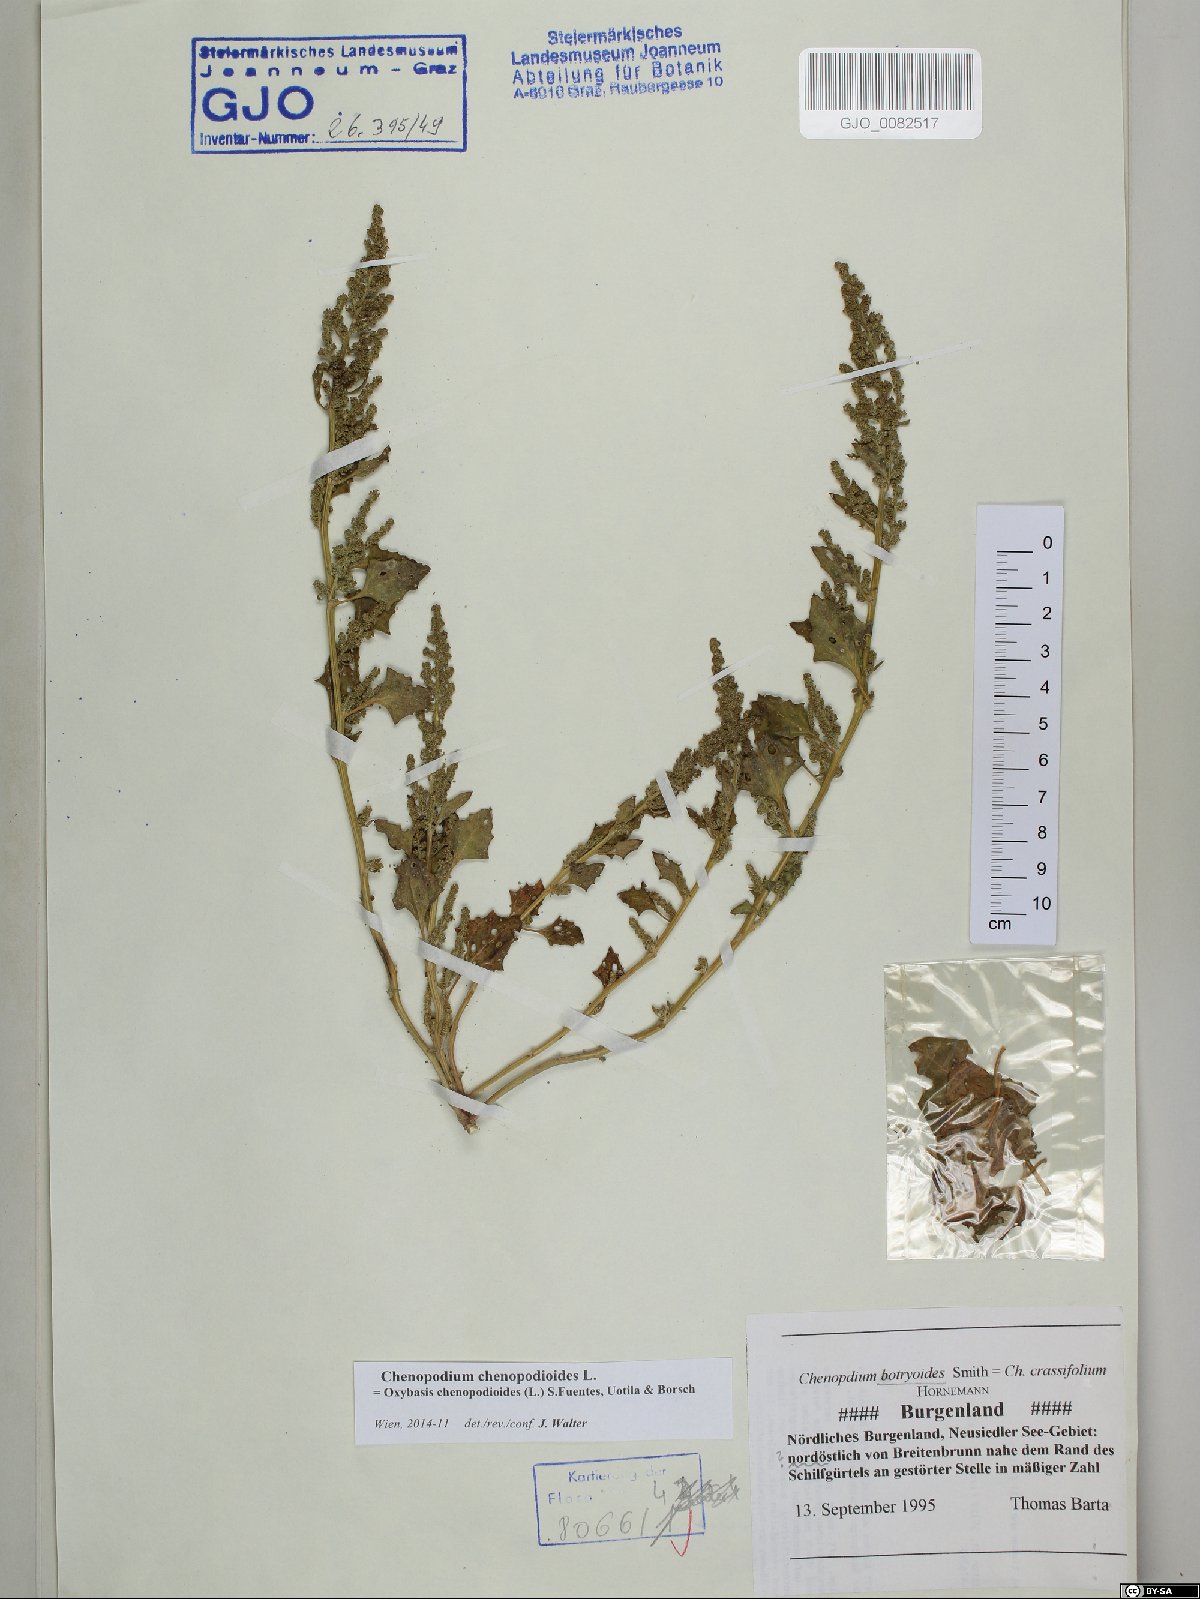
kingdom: Plantae
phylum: Tracheophyta
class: Magnoliopsida
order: Caryophyllales
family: Amaranthaceae
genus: Oxybasis
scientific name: Oxybasis chenopodioides
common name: Saltmarsh goosefoot
